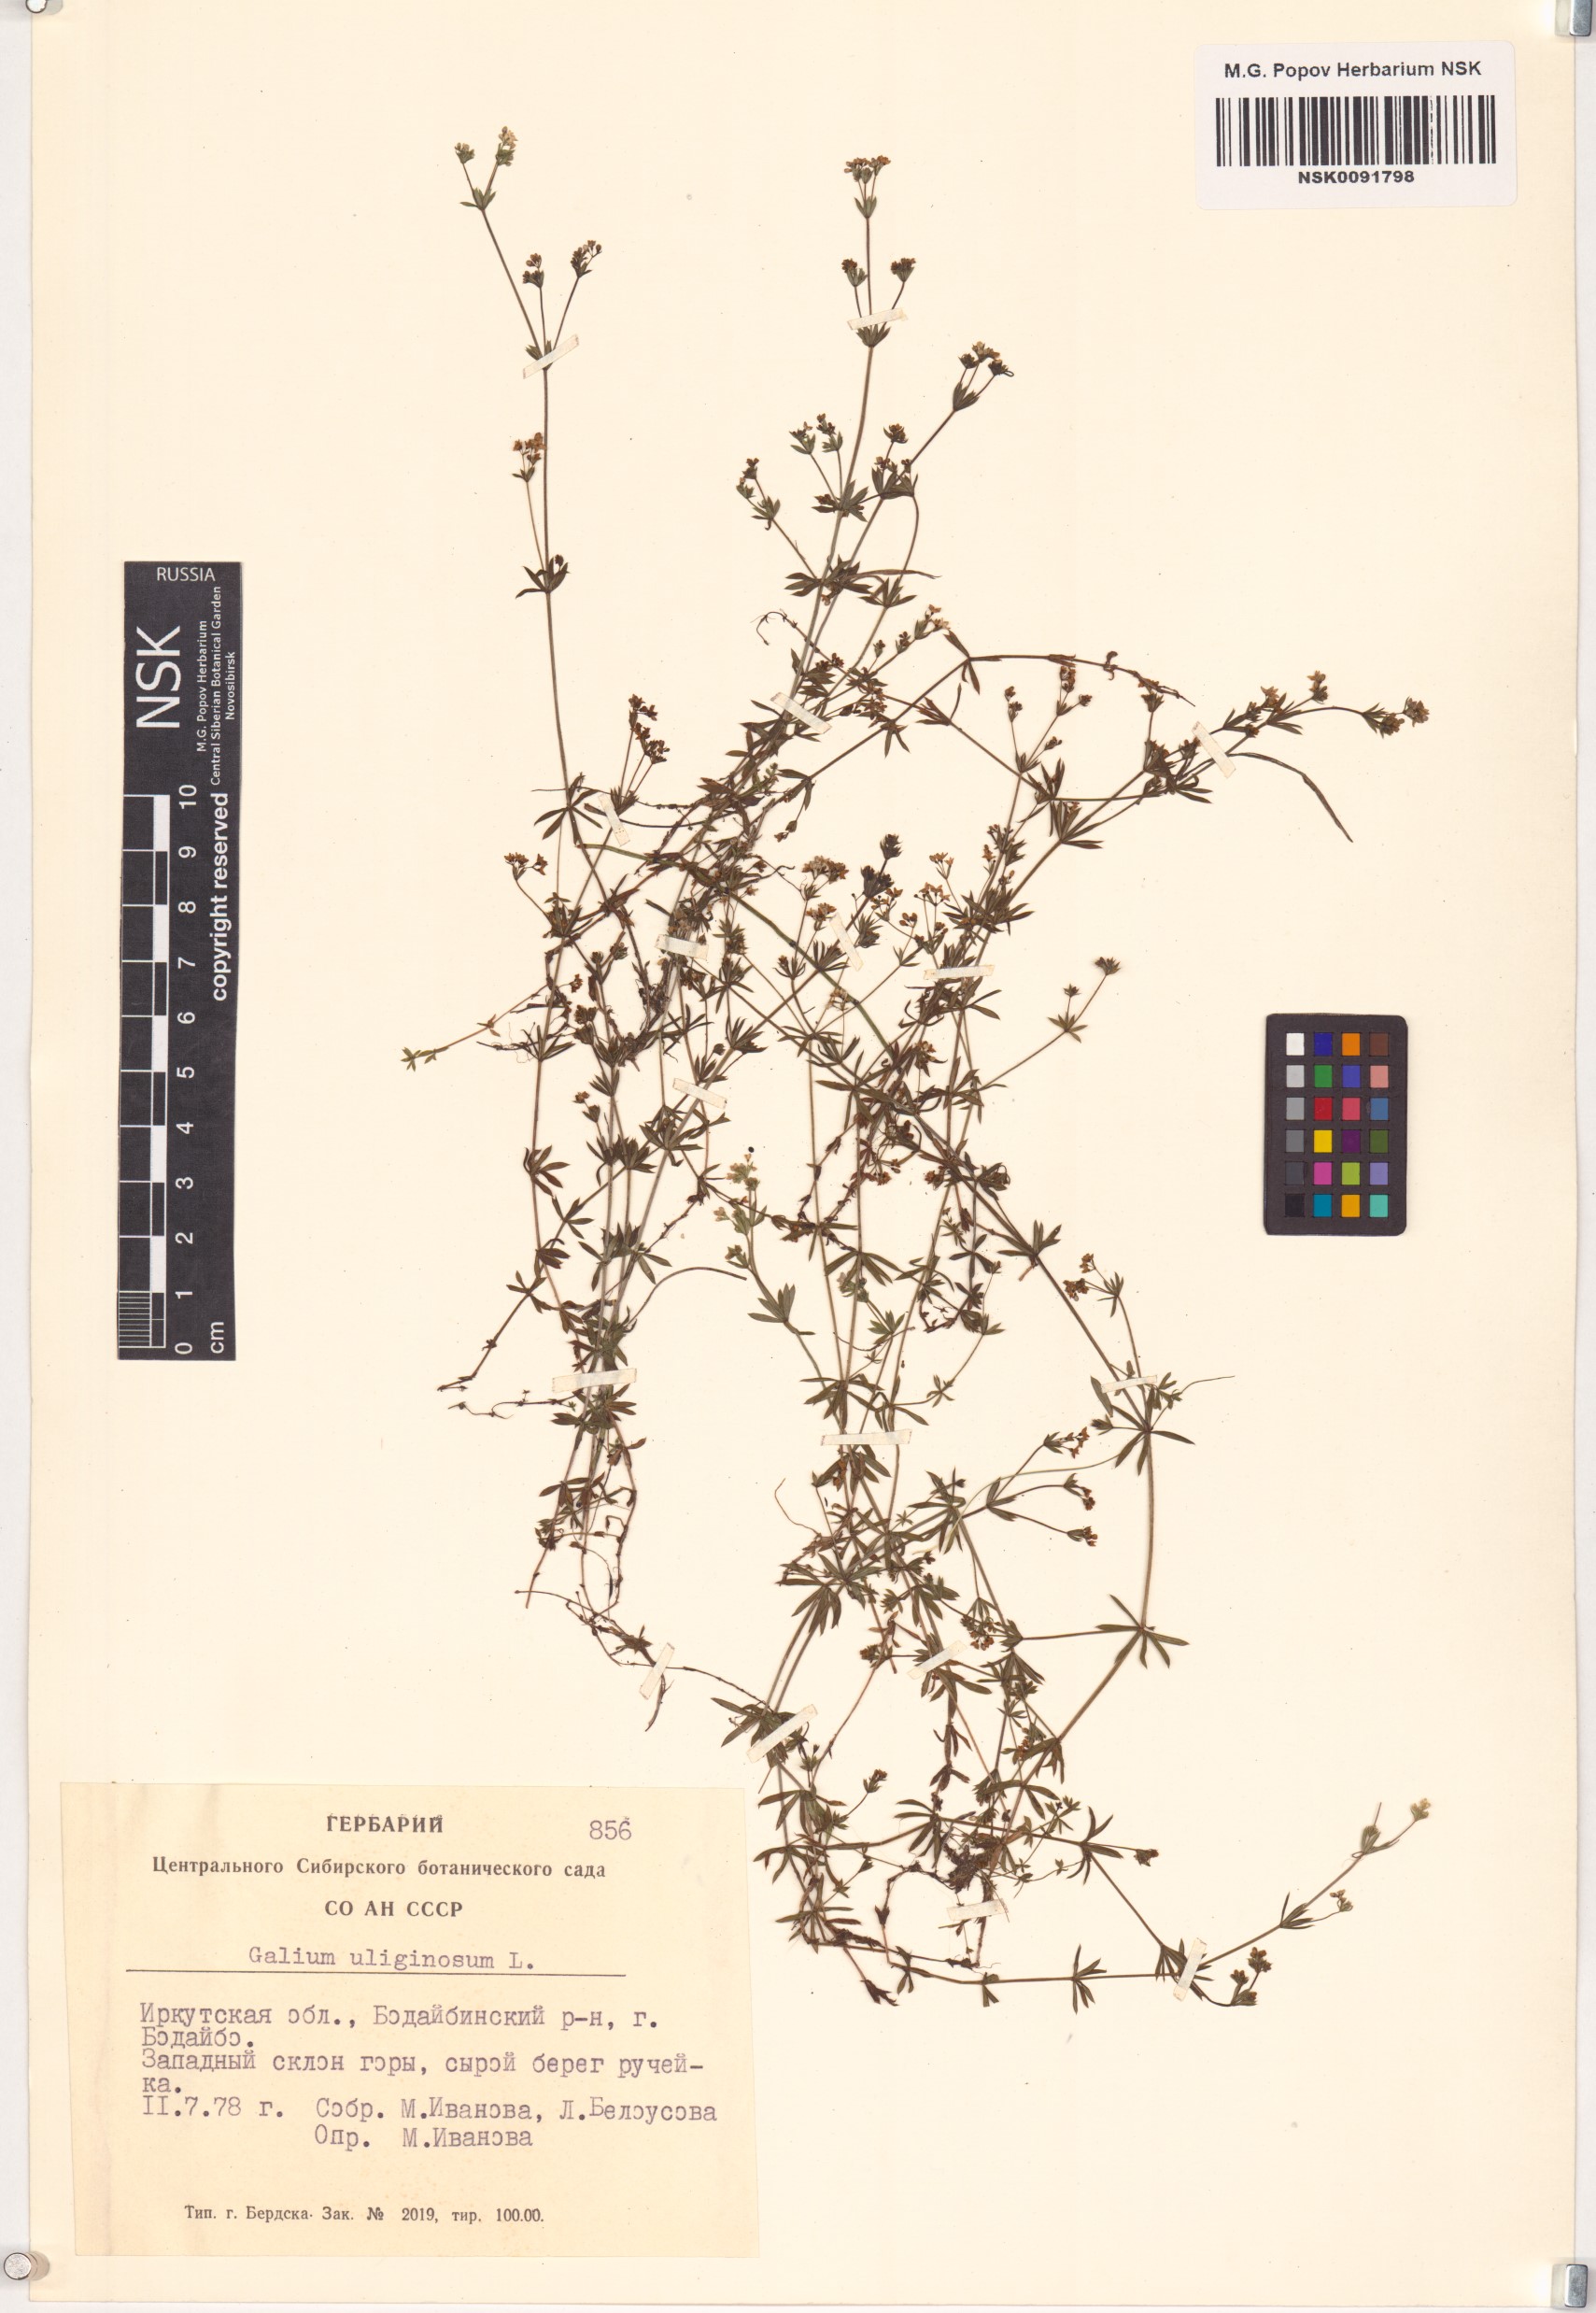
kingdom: Plantae
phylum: Tracheophyta
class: Magnoliopsida
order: Gentianales
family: Rubiaceae
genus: Galium
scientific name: Galium uliginosum
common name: Fen bedstraw
